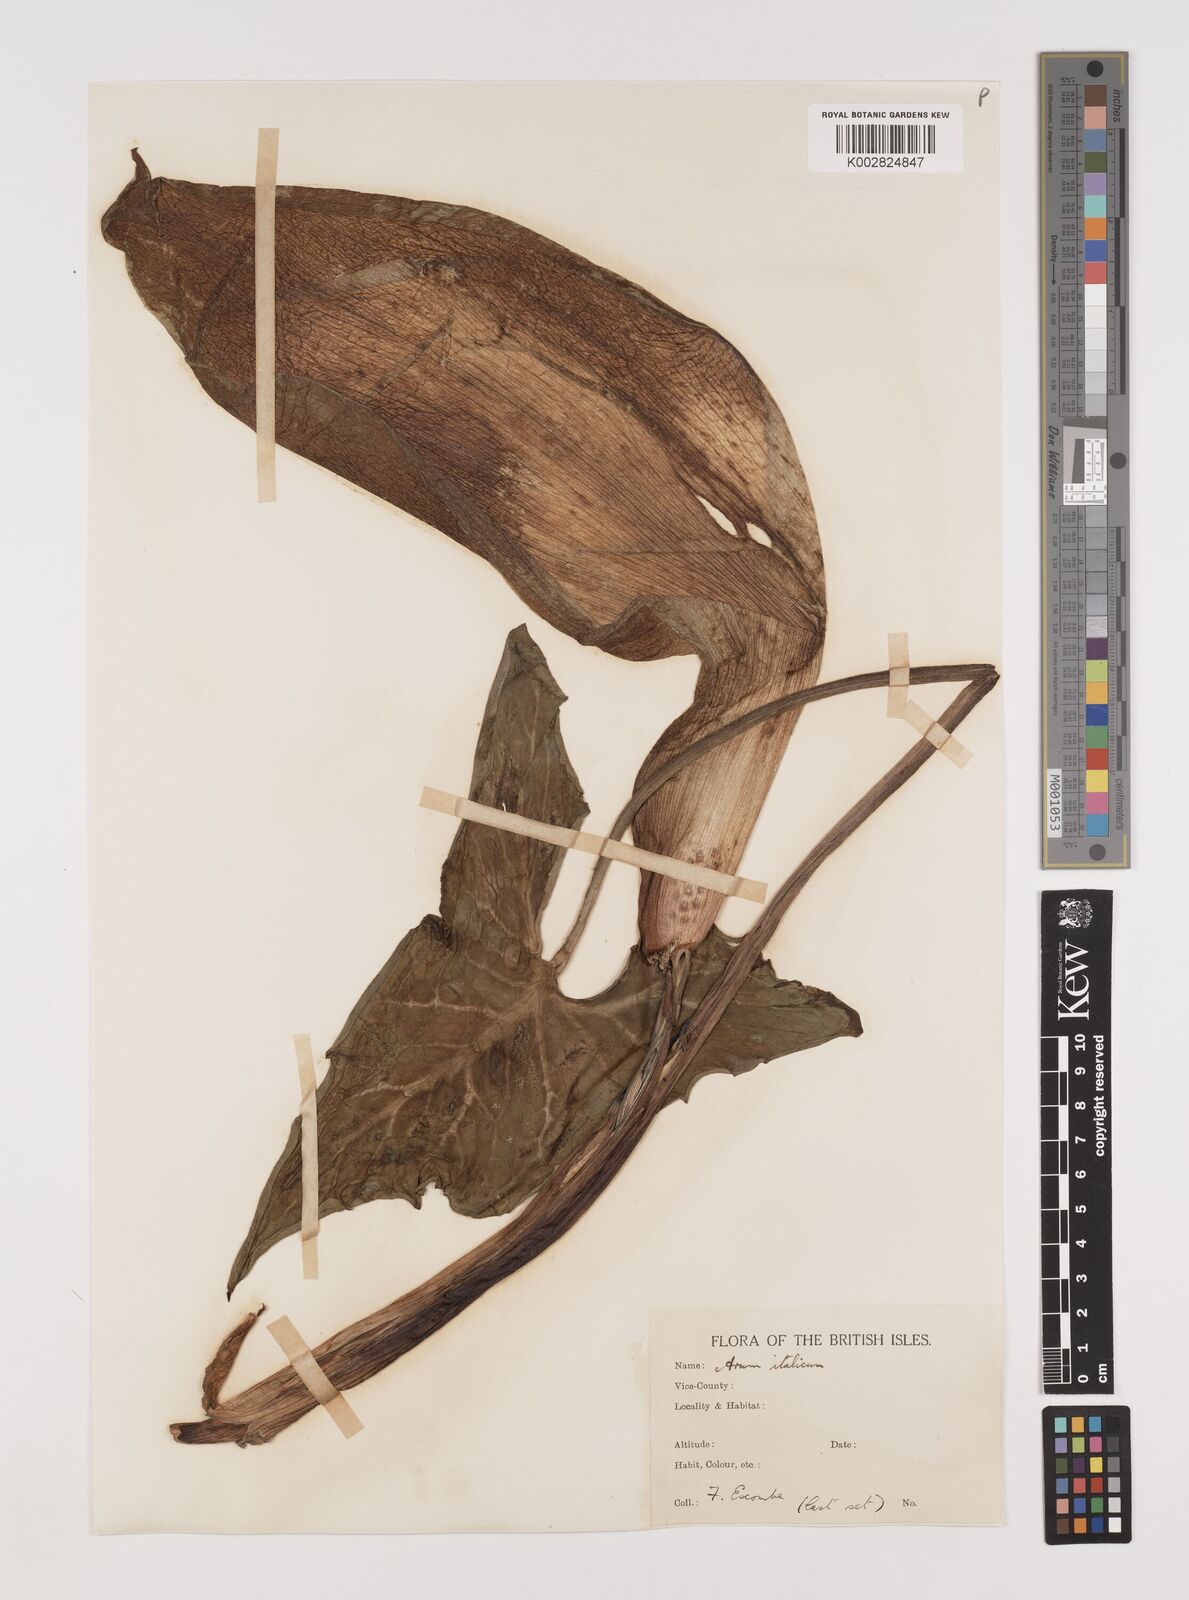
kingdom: Plantae
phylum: Tracheophyta
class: Liliopsida
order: Alismatales
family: Araceae
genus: Arum
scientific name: Arum italicum
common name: Italian lords-and-ladies
